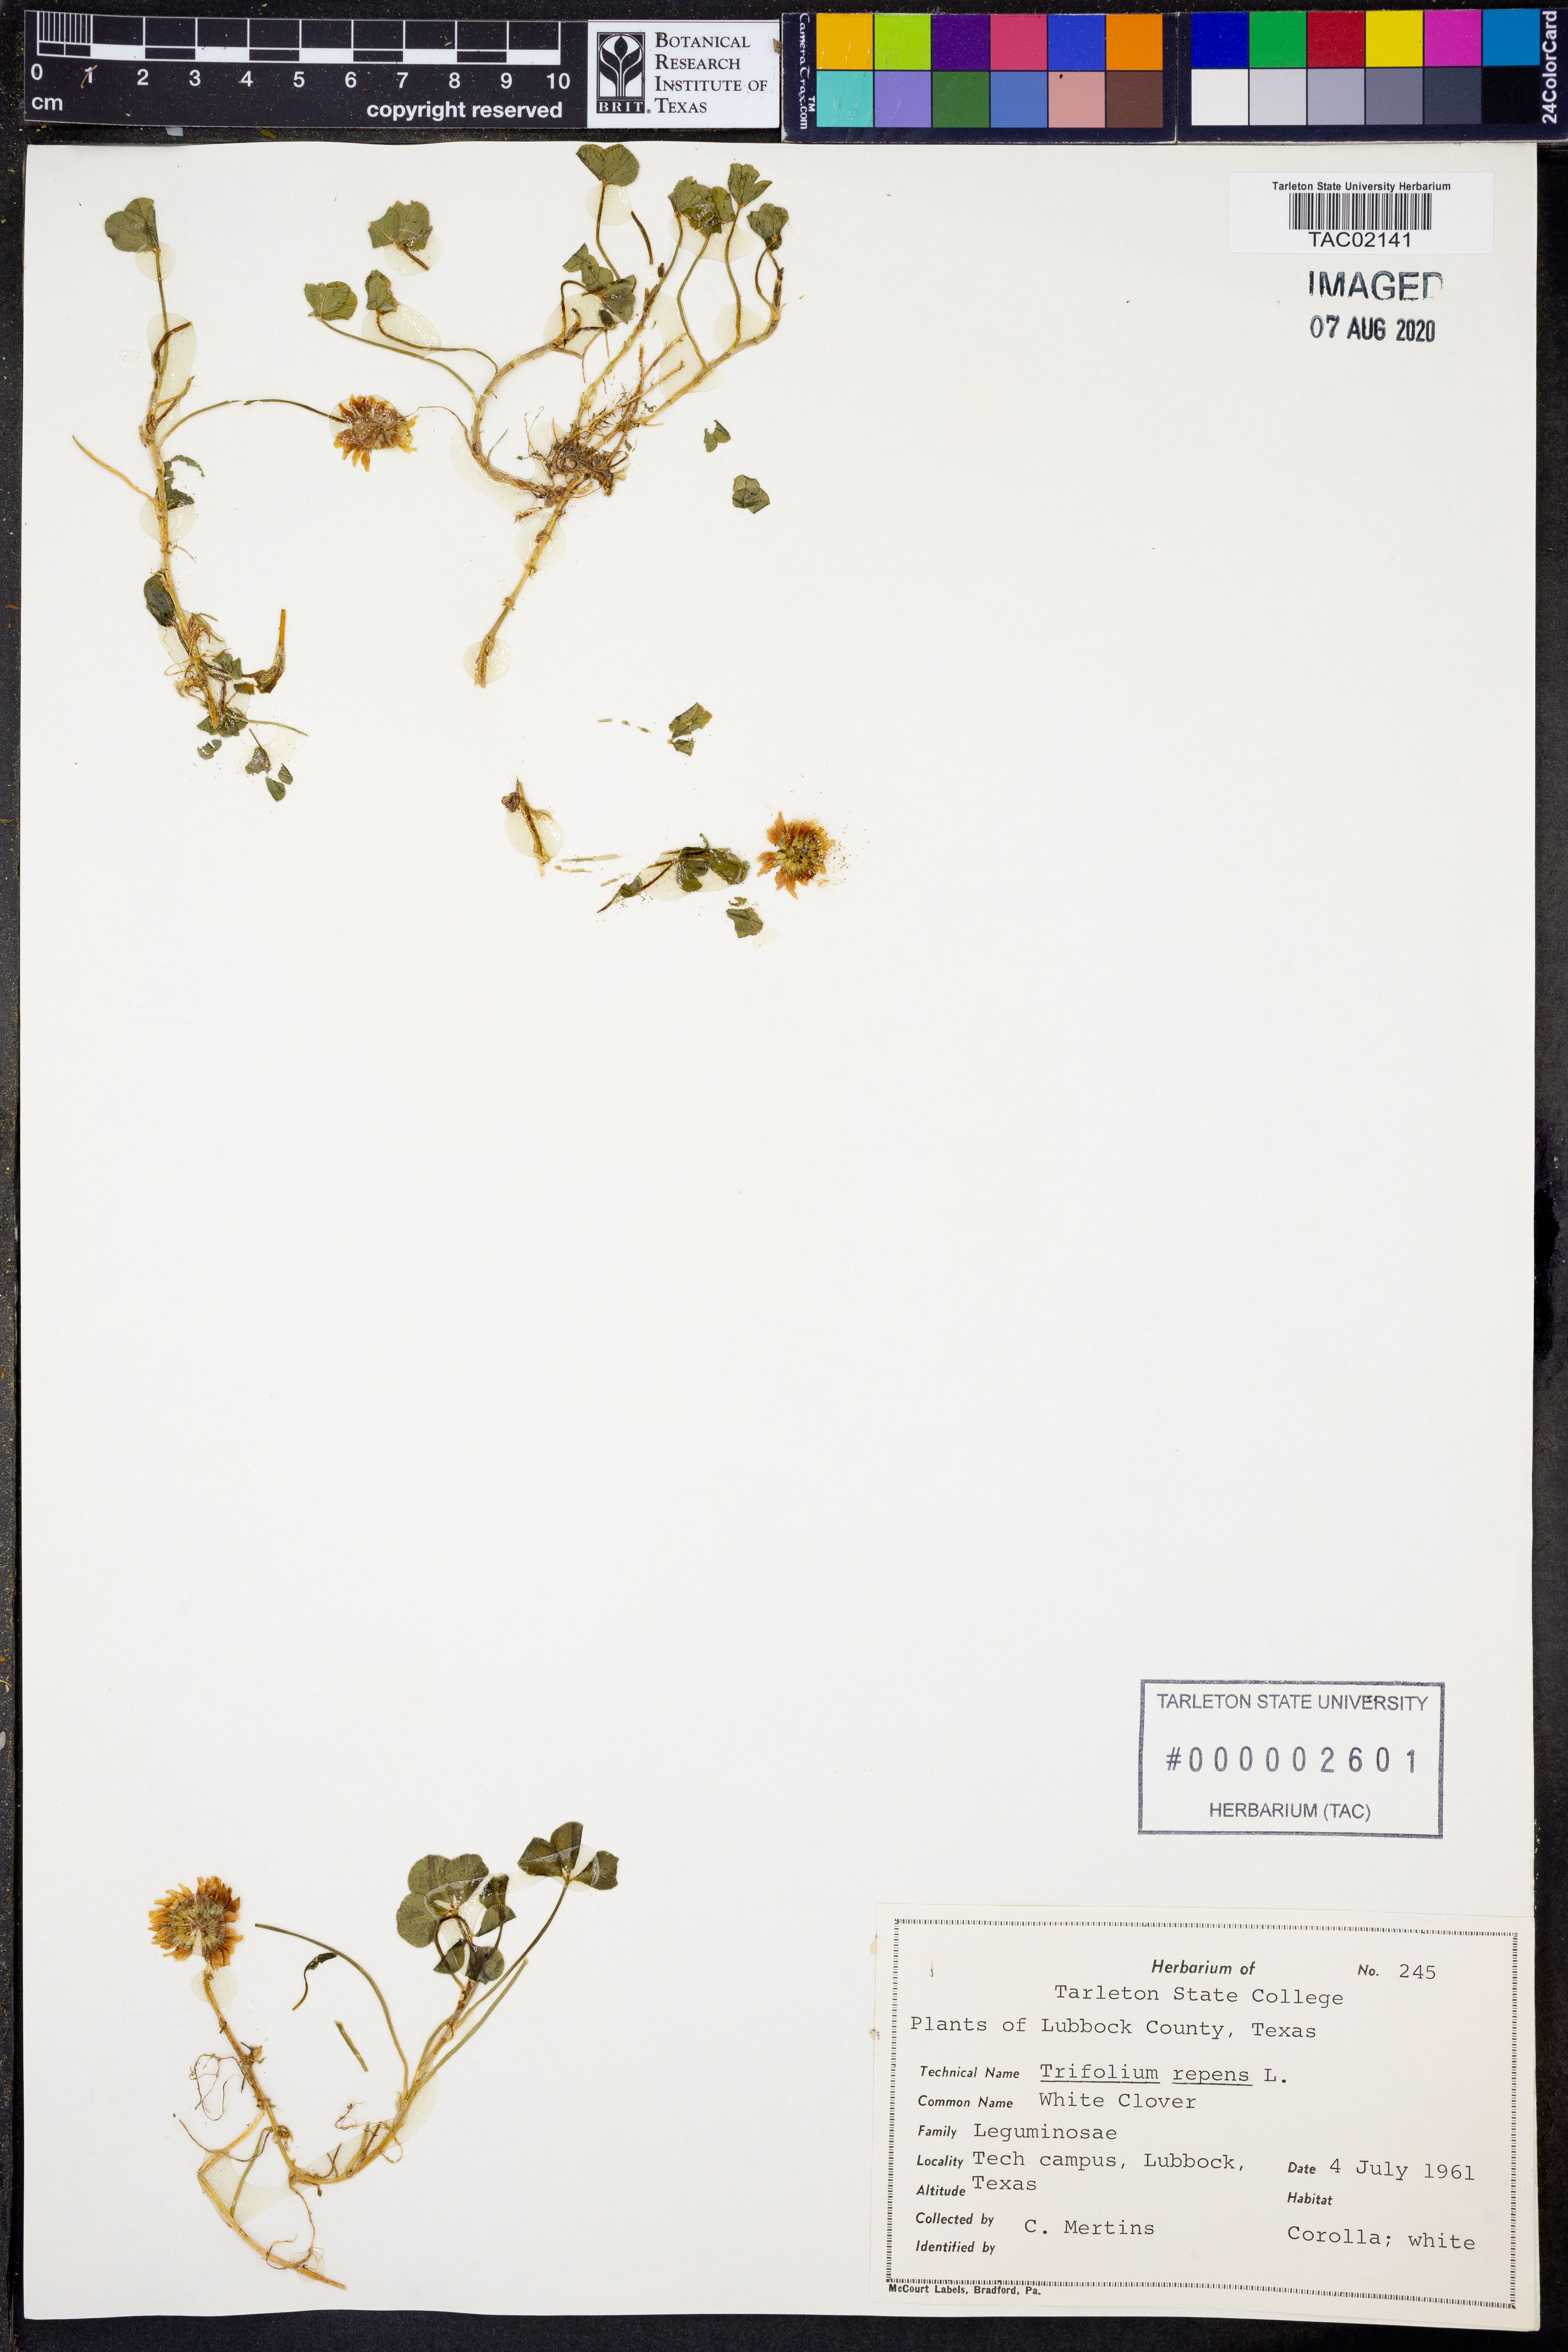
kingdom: Plantae
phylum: Tracheophyta
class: Magnoliopsida
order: Fabales
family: Fabaceae
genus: Trifolium
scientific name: Trifolium repens
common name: White clover
